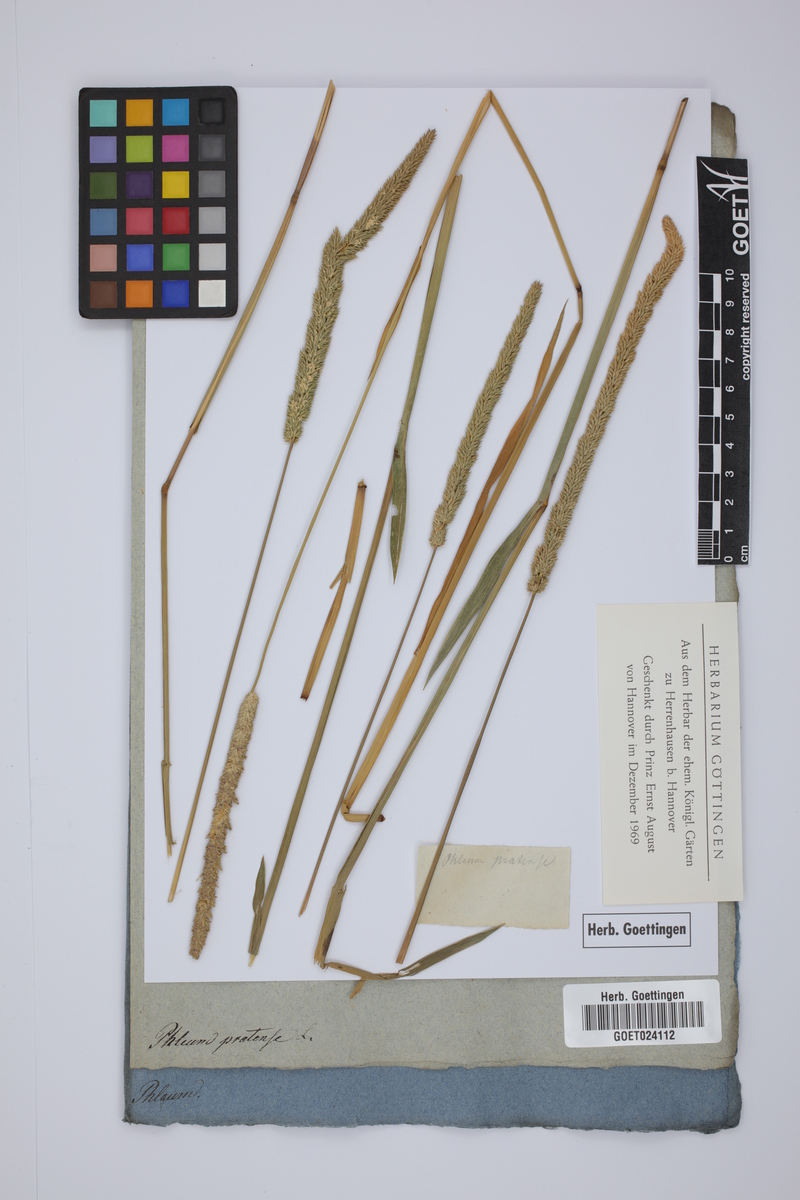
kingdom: Plantae
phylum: Tracheophyta
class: Liliopsida
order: Poales
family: Poaceae
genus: Phleum
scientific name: Phleum pratense
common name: Timothy grass
